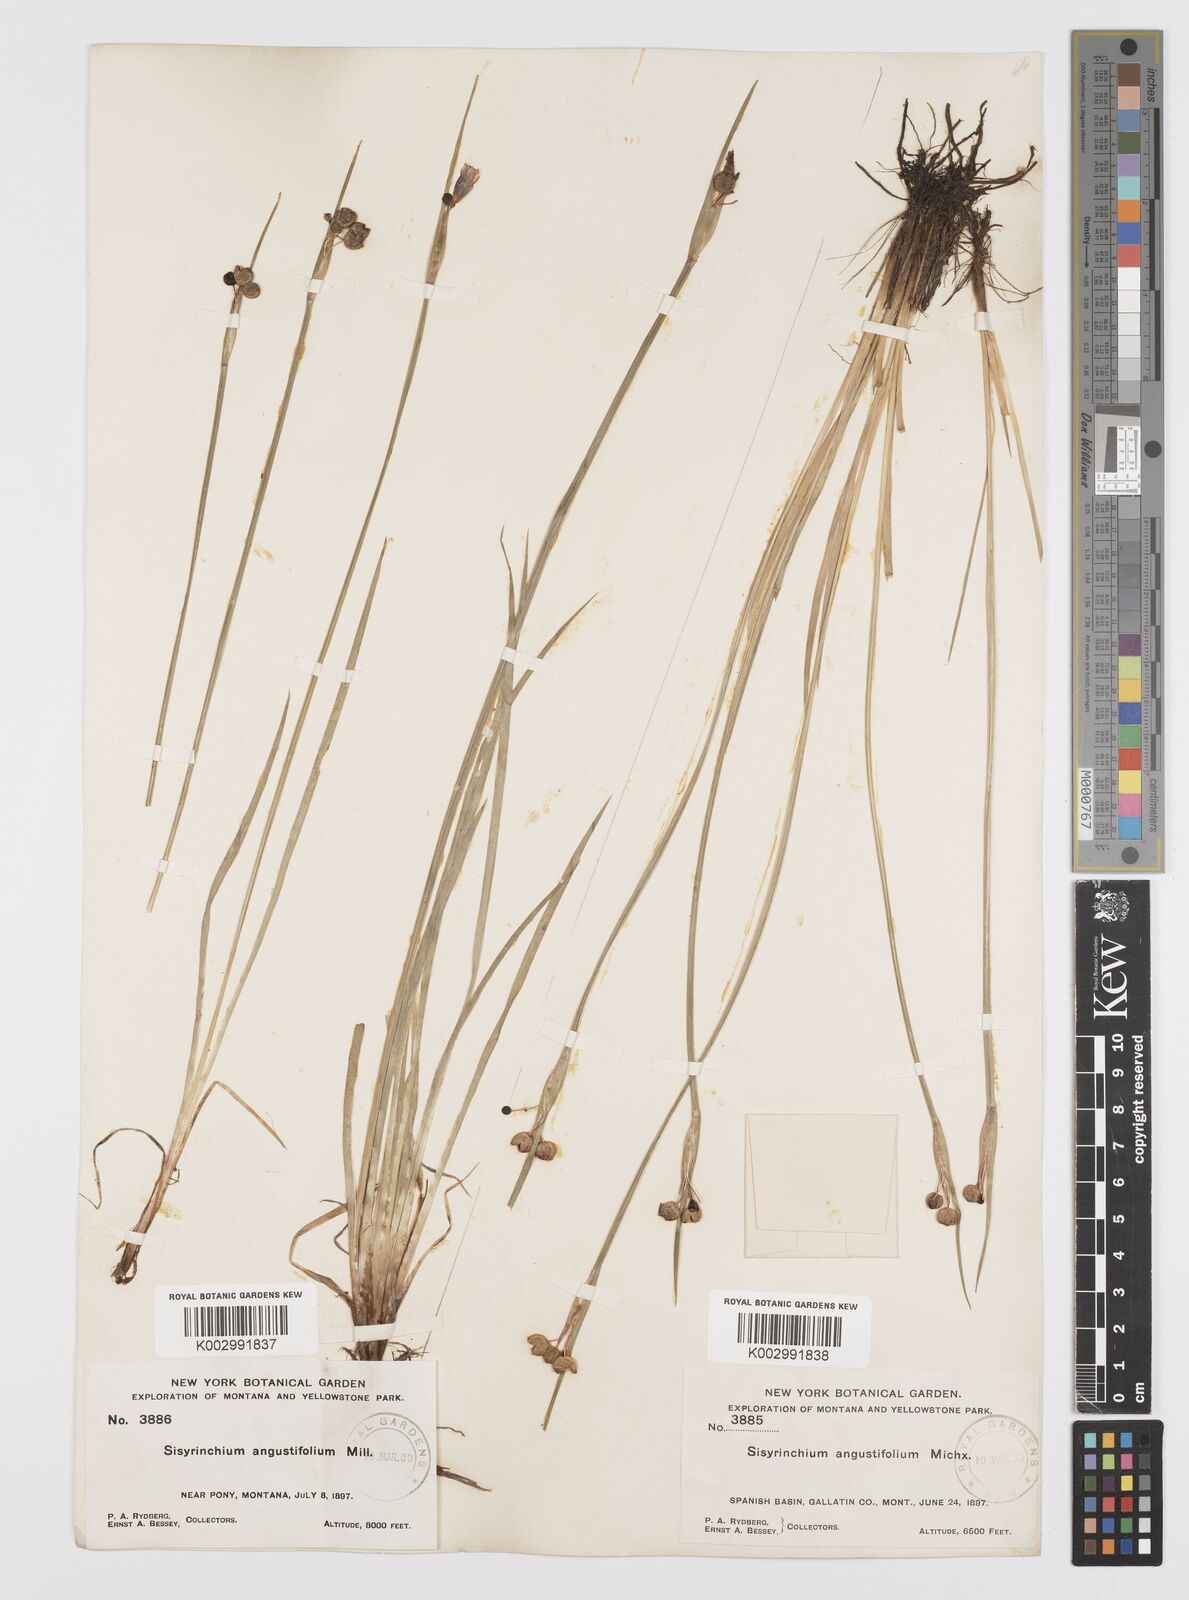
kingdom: Plantae
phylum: Tracheophyta
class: Liliopsida
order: Asparagales
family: Iridaceae
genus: Sisyrinchium
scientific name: Sisyrinchium bermudiana
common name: Blue-eyed-grass
